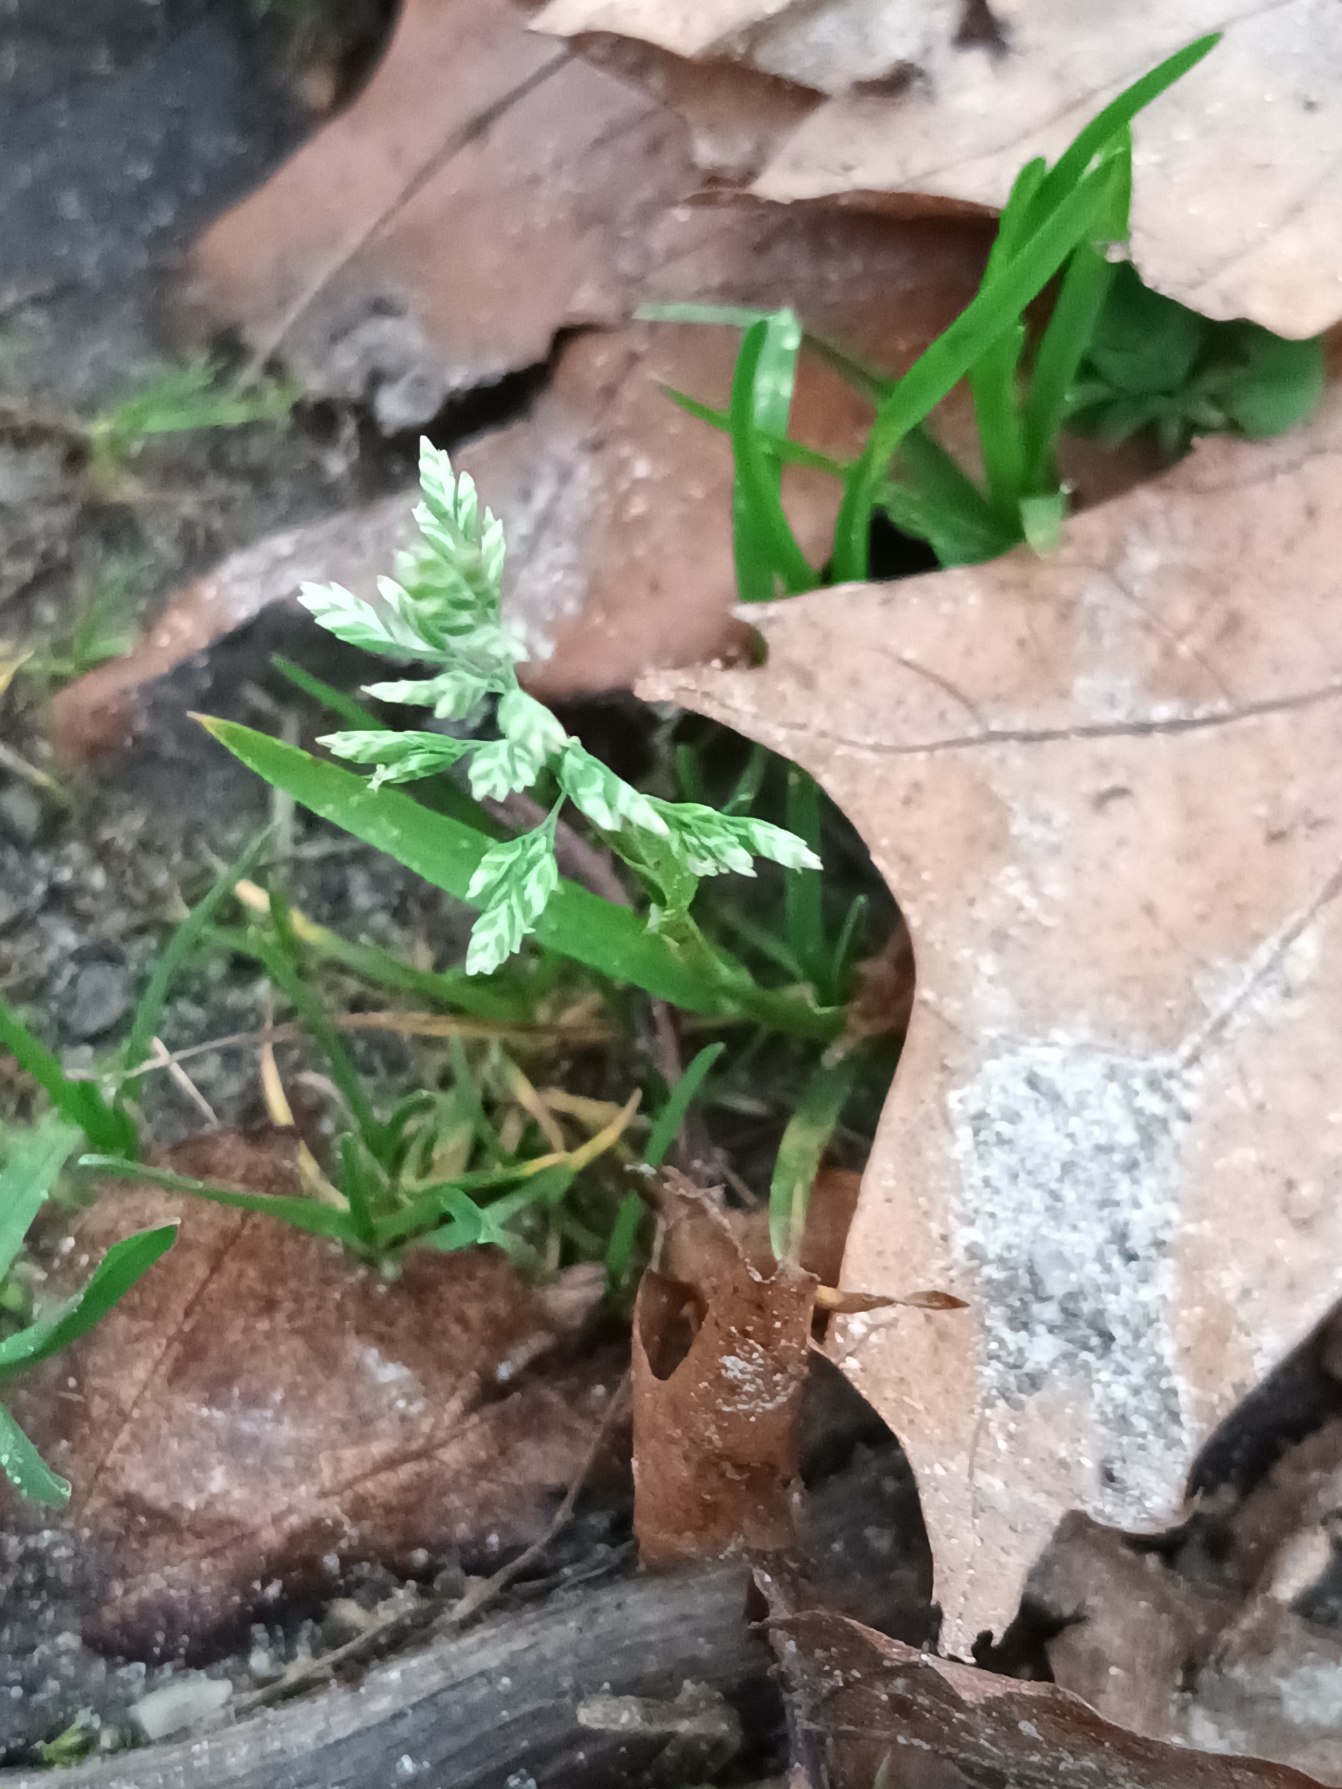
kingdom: Plantae
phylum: Tracheophyta
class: Liliopsida
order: Poales
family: Poaceae
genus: Poa
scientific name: Poa annua
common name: Enårig rapgræs
